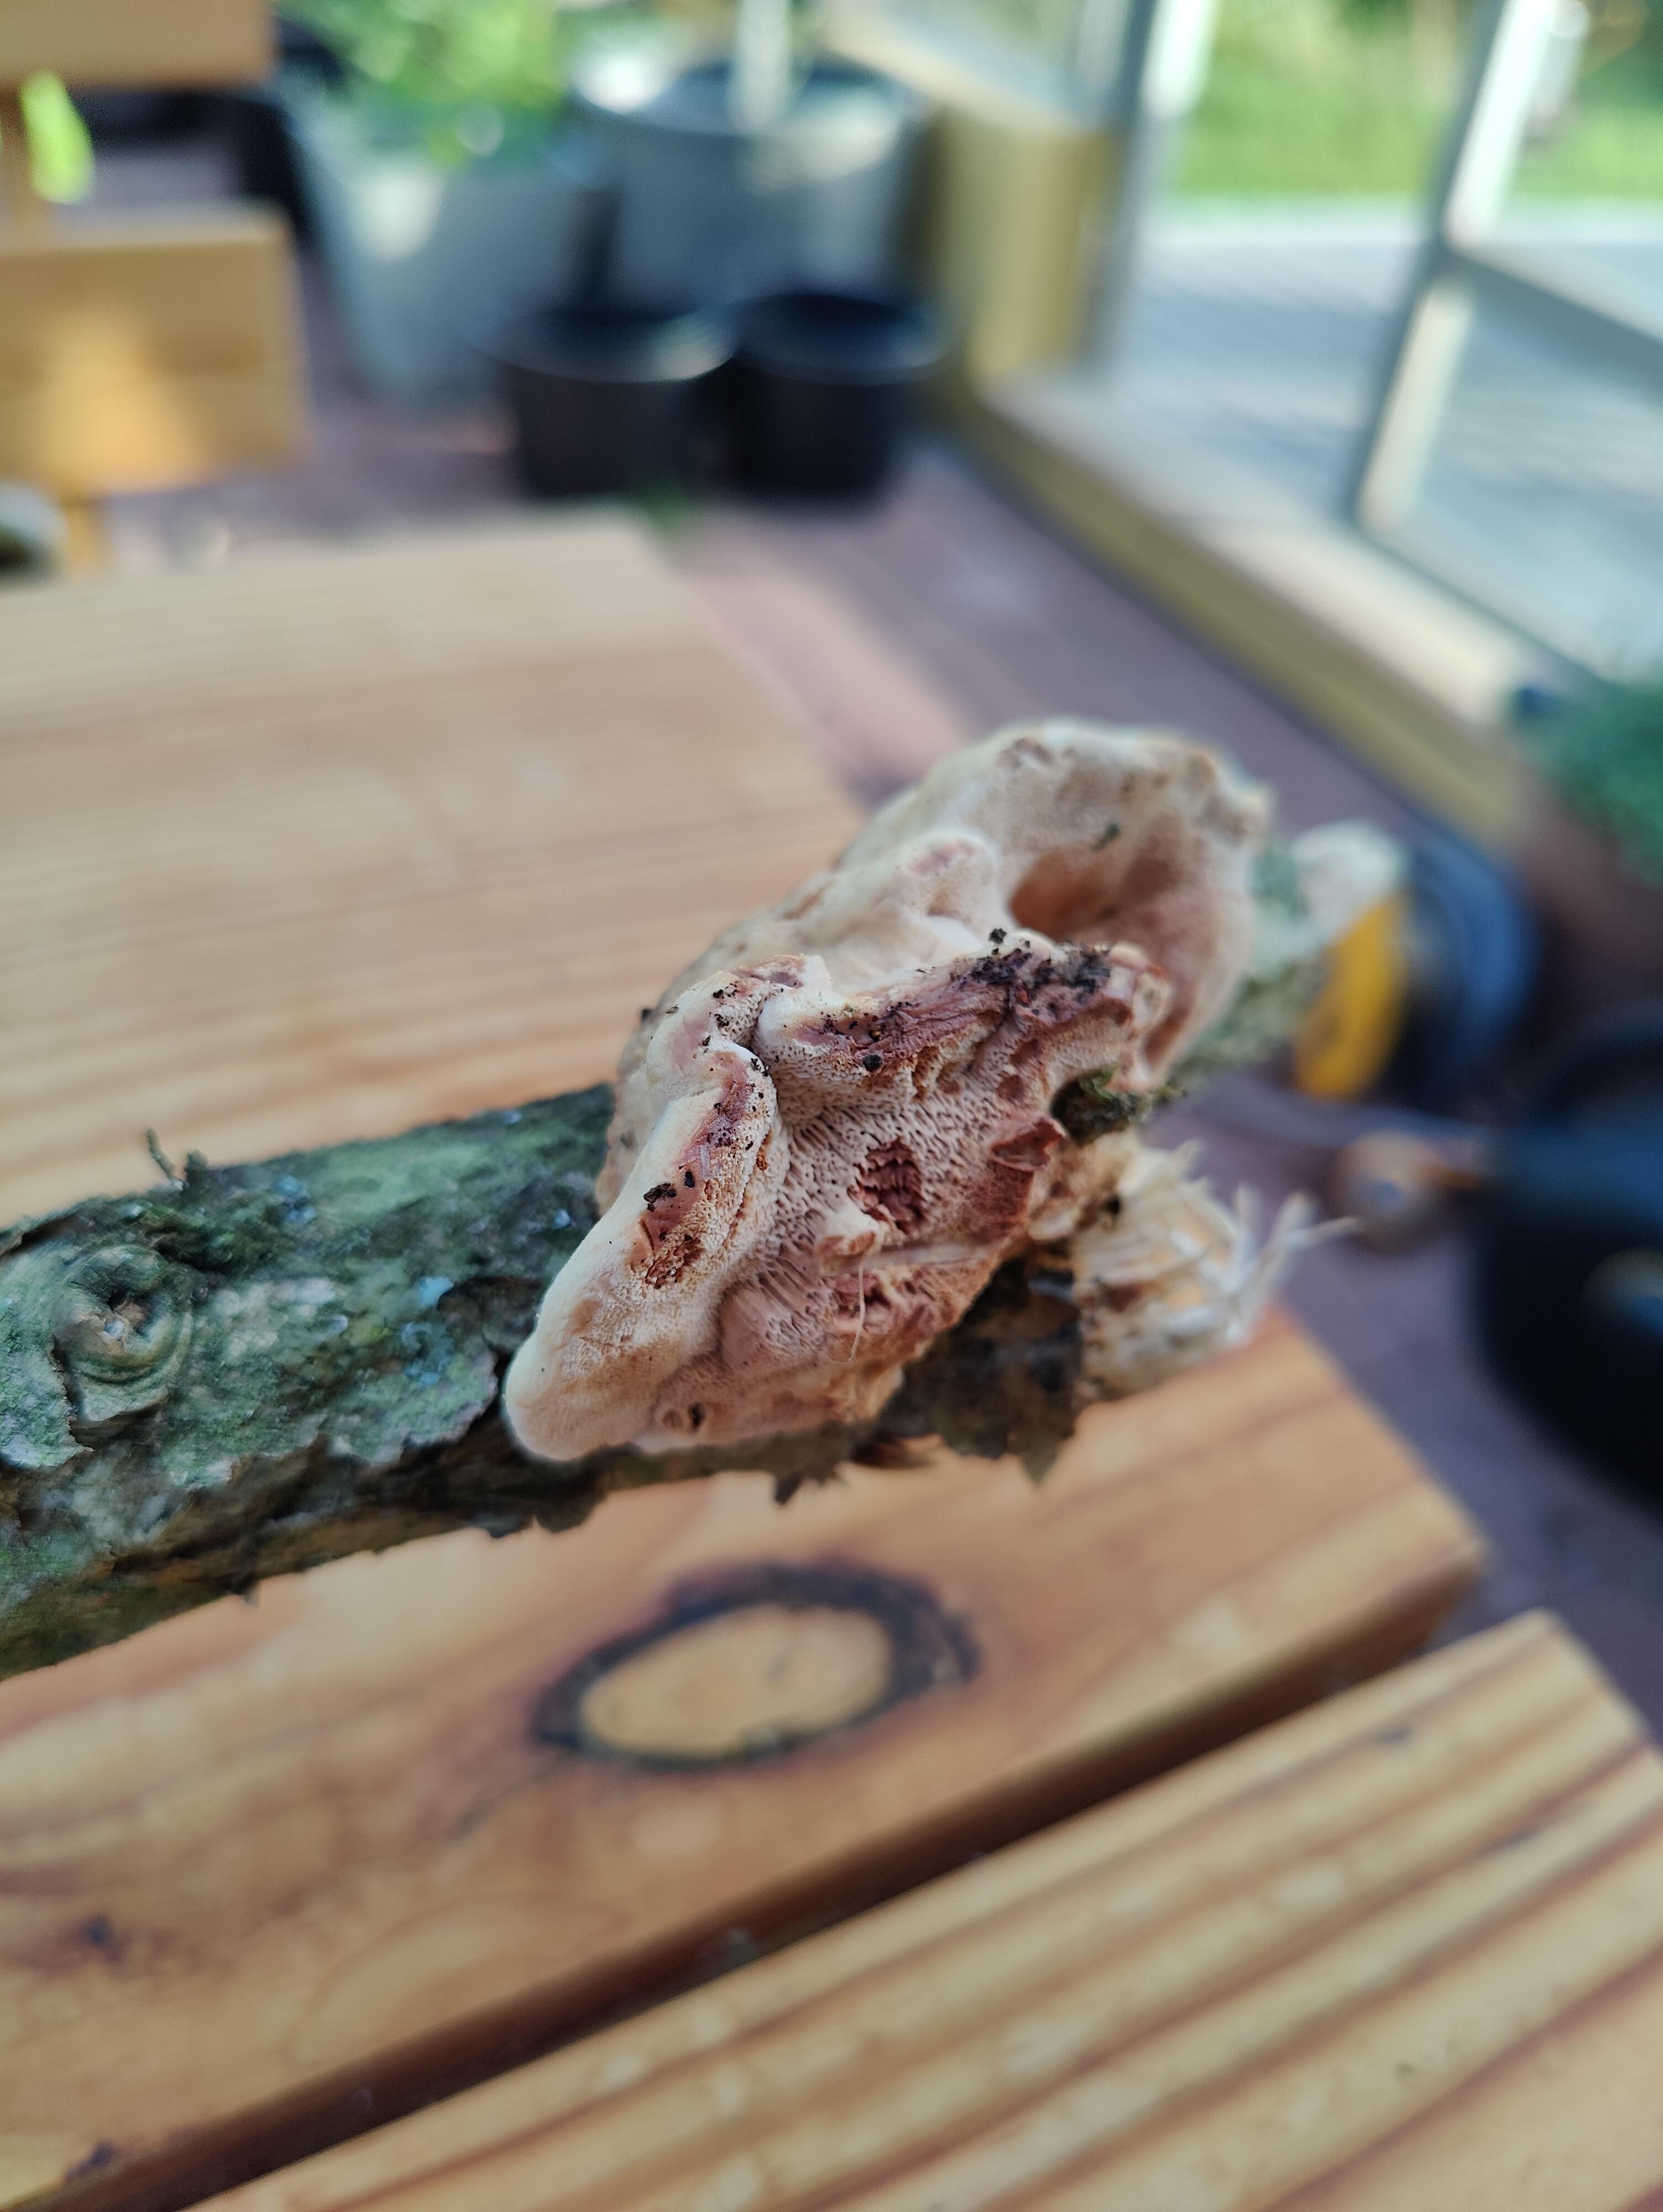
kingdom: Fungi
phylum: Basidiomycota
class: Agaricomycetes
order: Polyporales
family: Phanerochaetaceae
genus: Hapalopilus
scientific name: Hapalopilus rutilans
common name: rødlig okkerporesvamp
